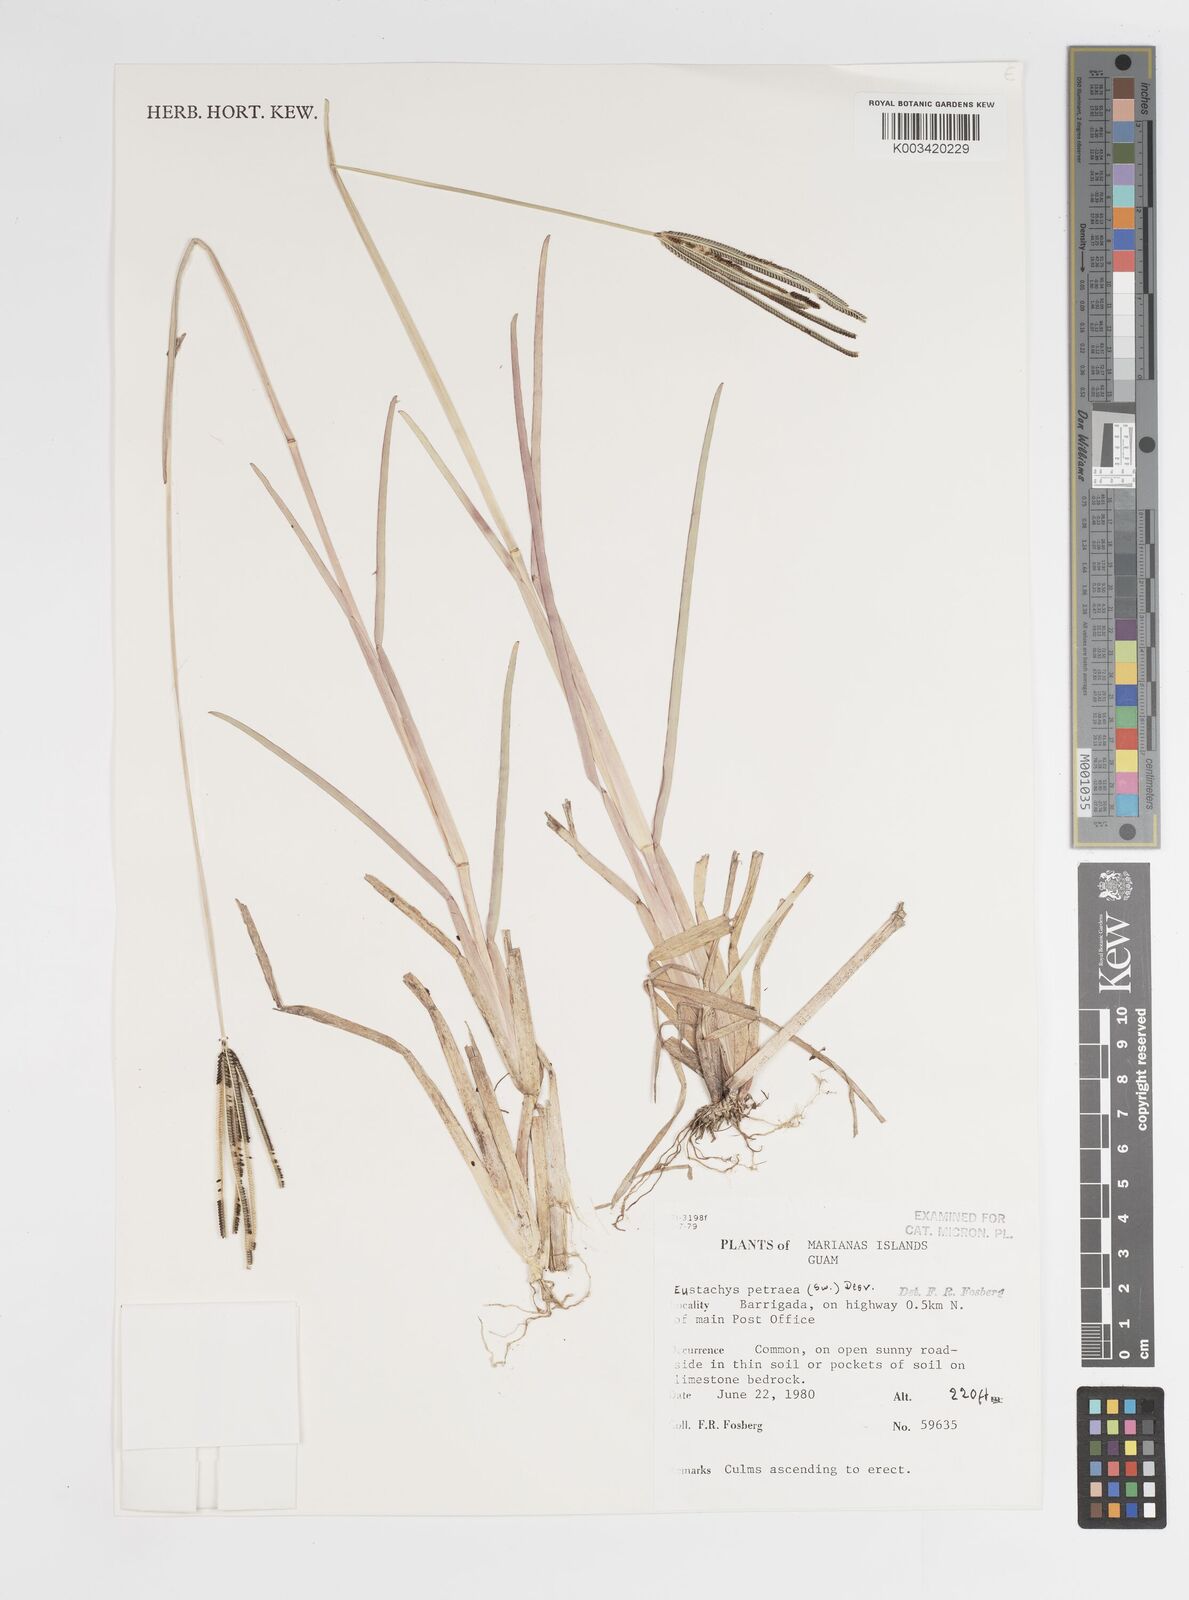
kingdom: Plantae
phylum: Tracheophyta
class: Liliopsida
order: Poales
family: Poaceae
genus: Eustachys
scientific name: Eustachys petraea
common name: Pinewoods fingergrass
